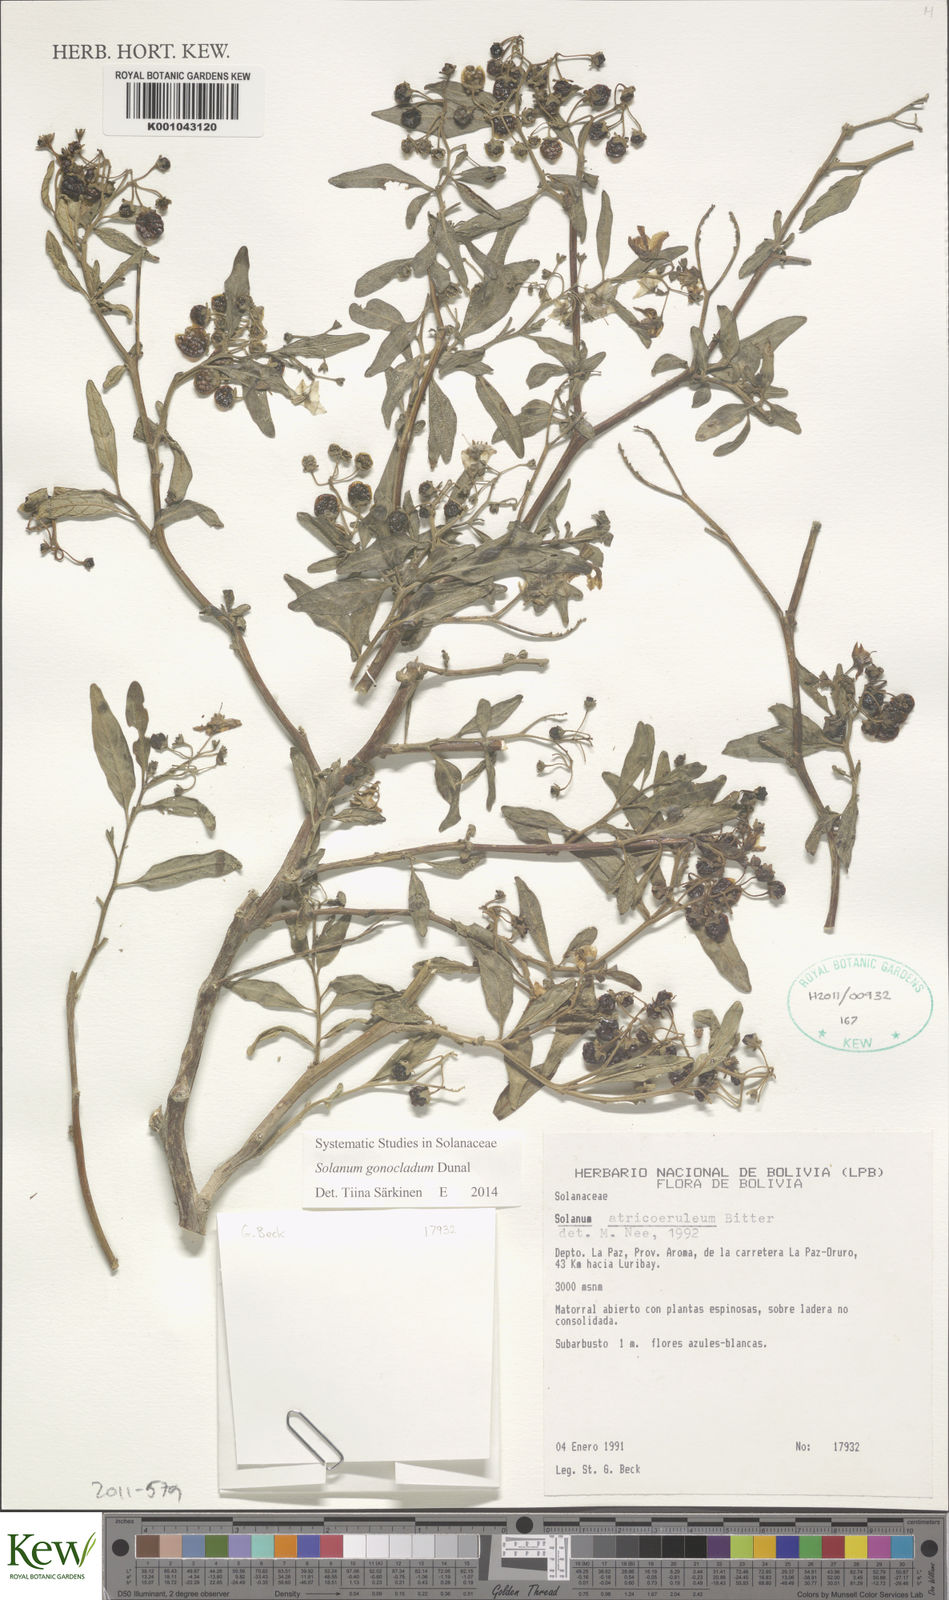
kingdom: Plantae
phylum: Tracheophyta
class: Magnoliopsida
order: Solanales
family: Solanaceae
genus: Solanum
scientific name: Solanum gonocladum
